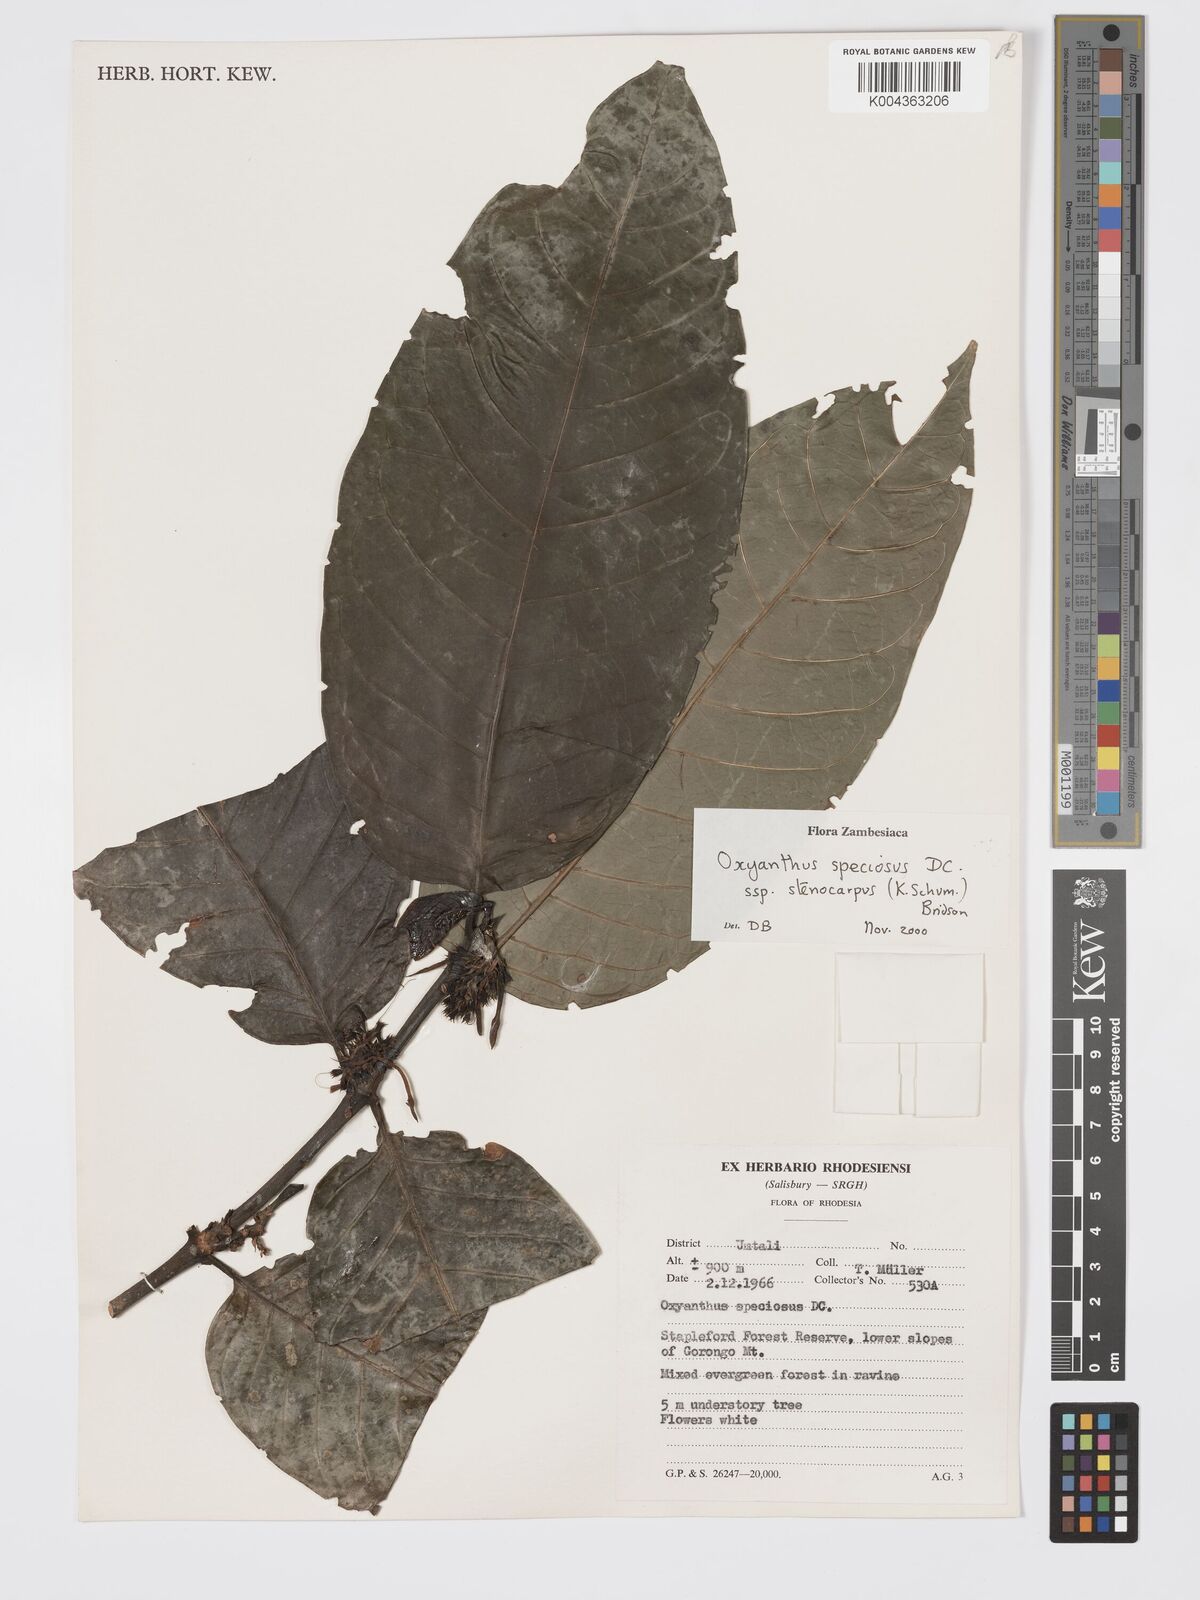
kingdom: Plantae
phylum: Tracheophyta
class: Magnoliopsida
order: Gentianales
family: Rubiaceae
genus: Oxyanthus
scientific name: Oxyanthus speciosus
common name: Whipstick loquat
